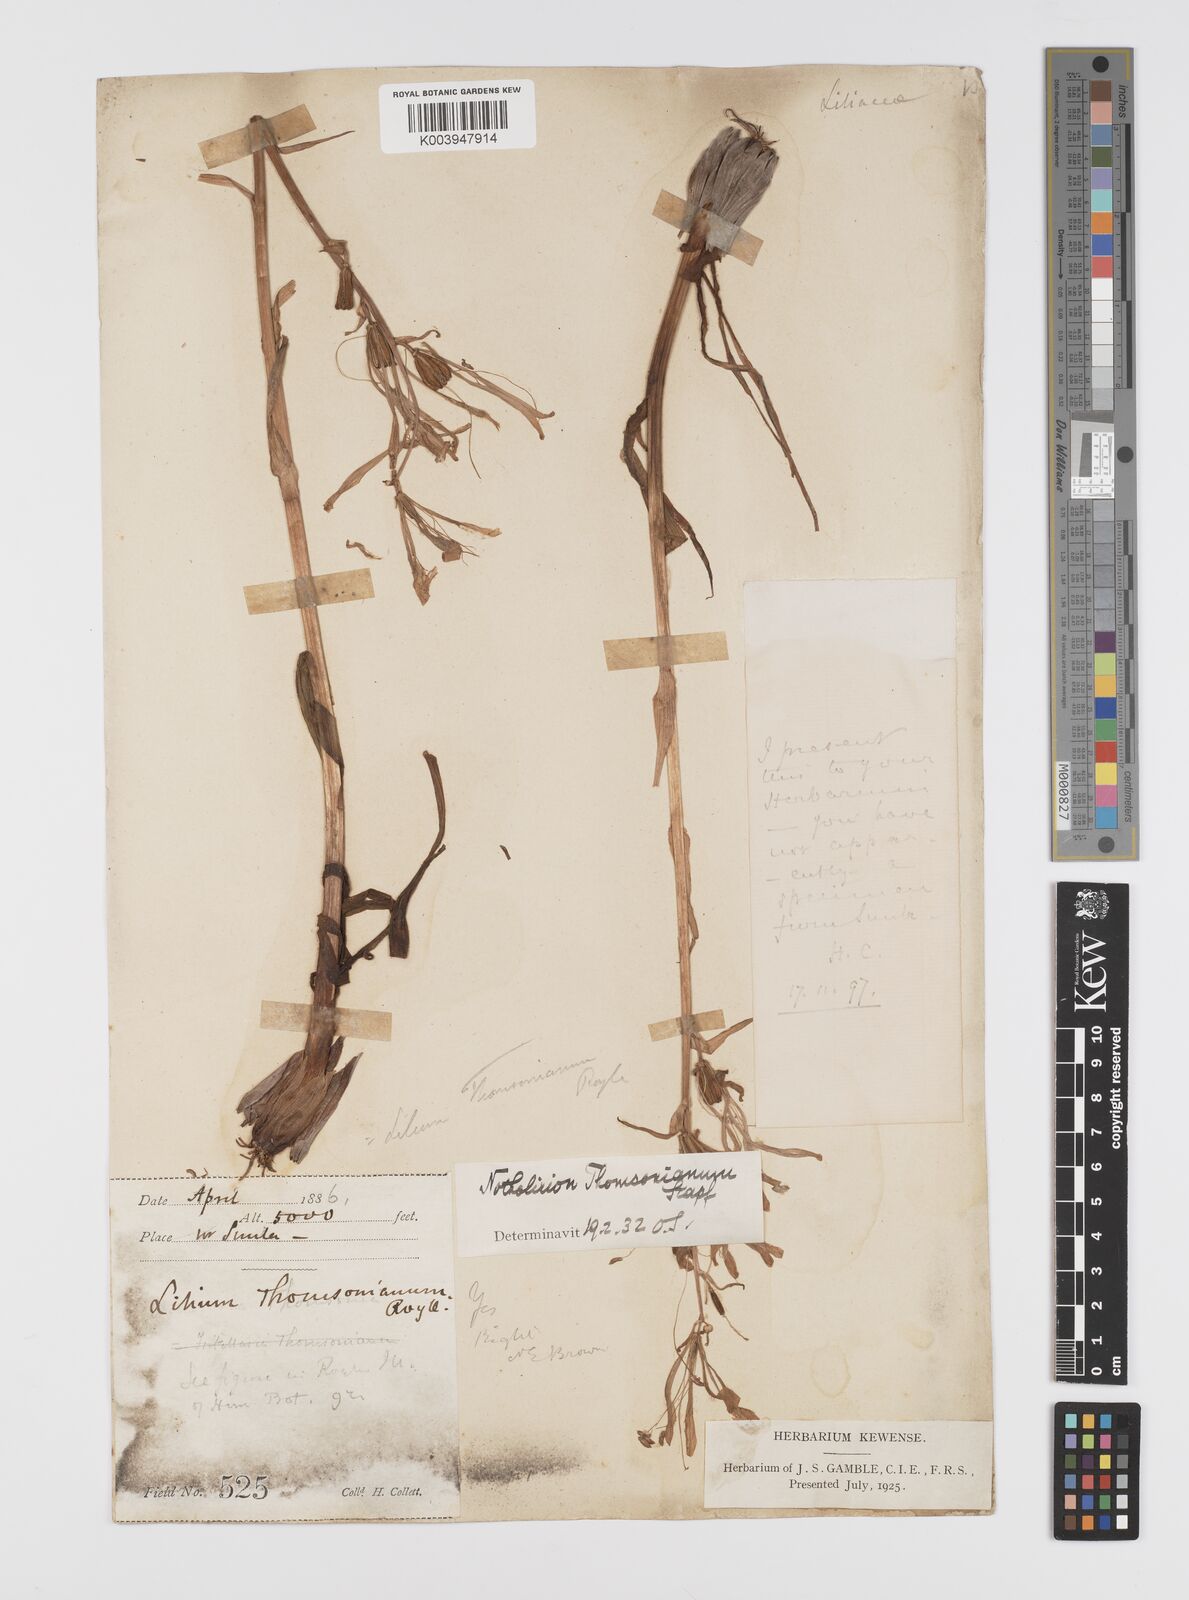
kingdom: Plantae
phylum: Tracheophyta
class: Liliopsida
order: Liliales
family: Liliaceae
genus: Notholirion
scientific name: Notholirion thomsonianum
